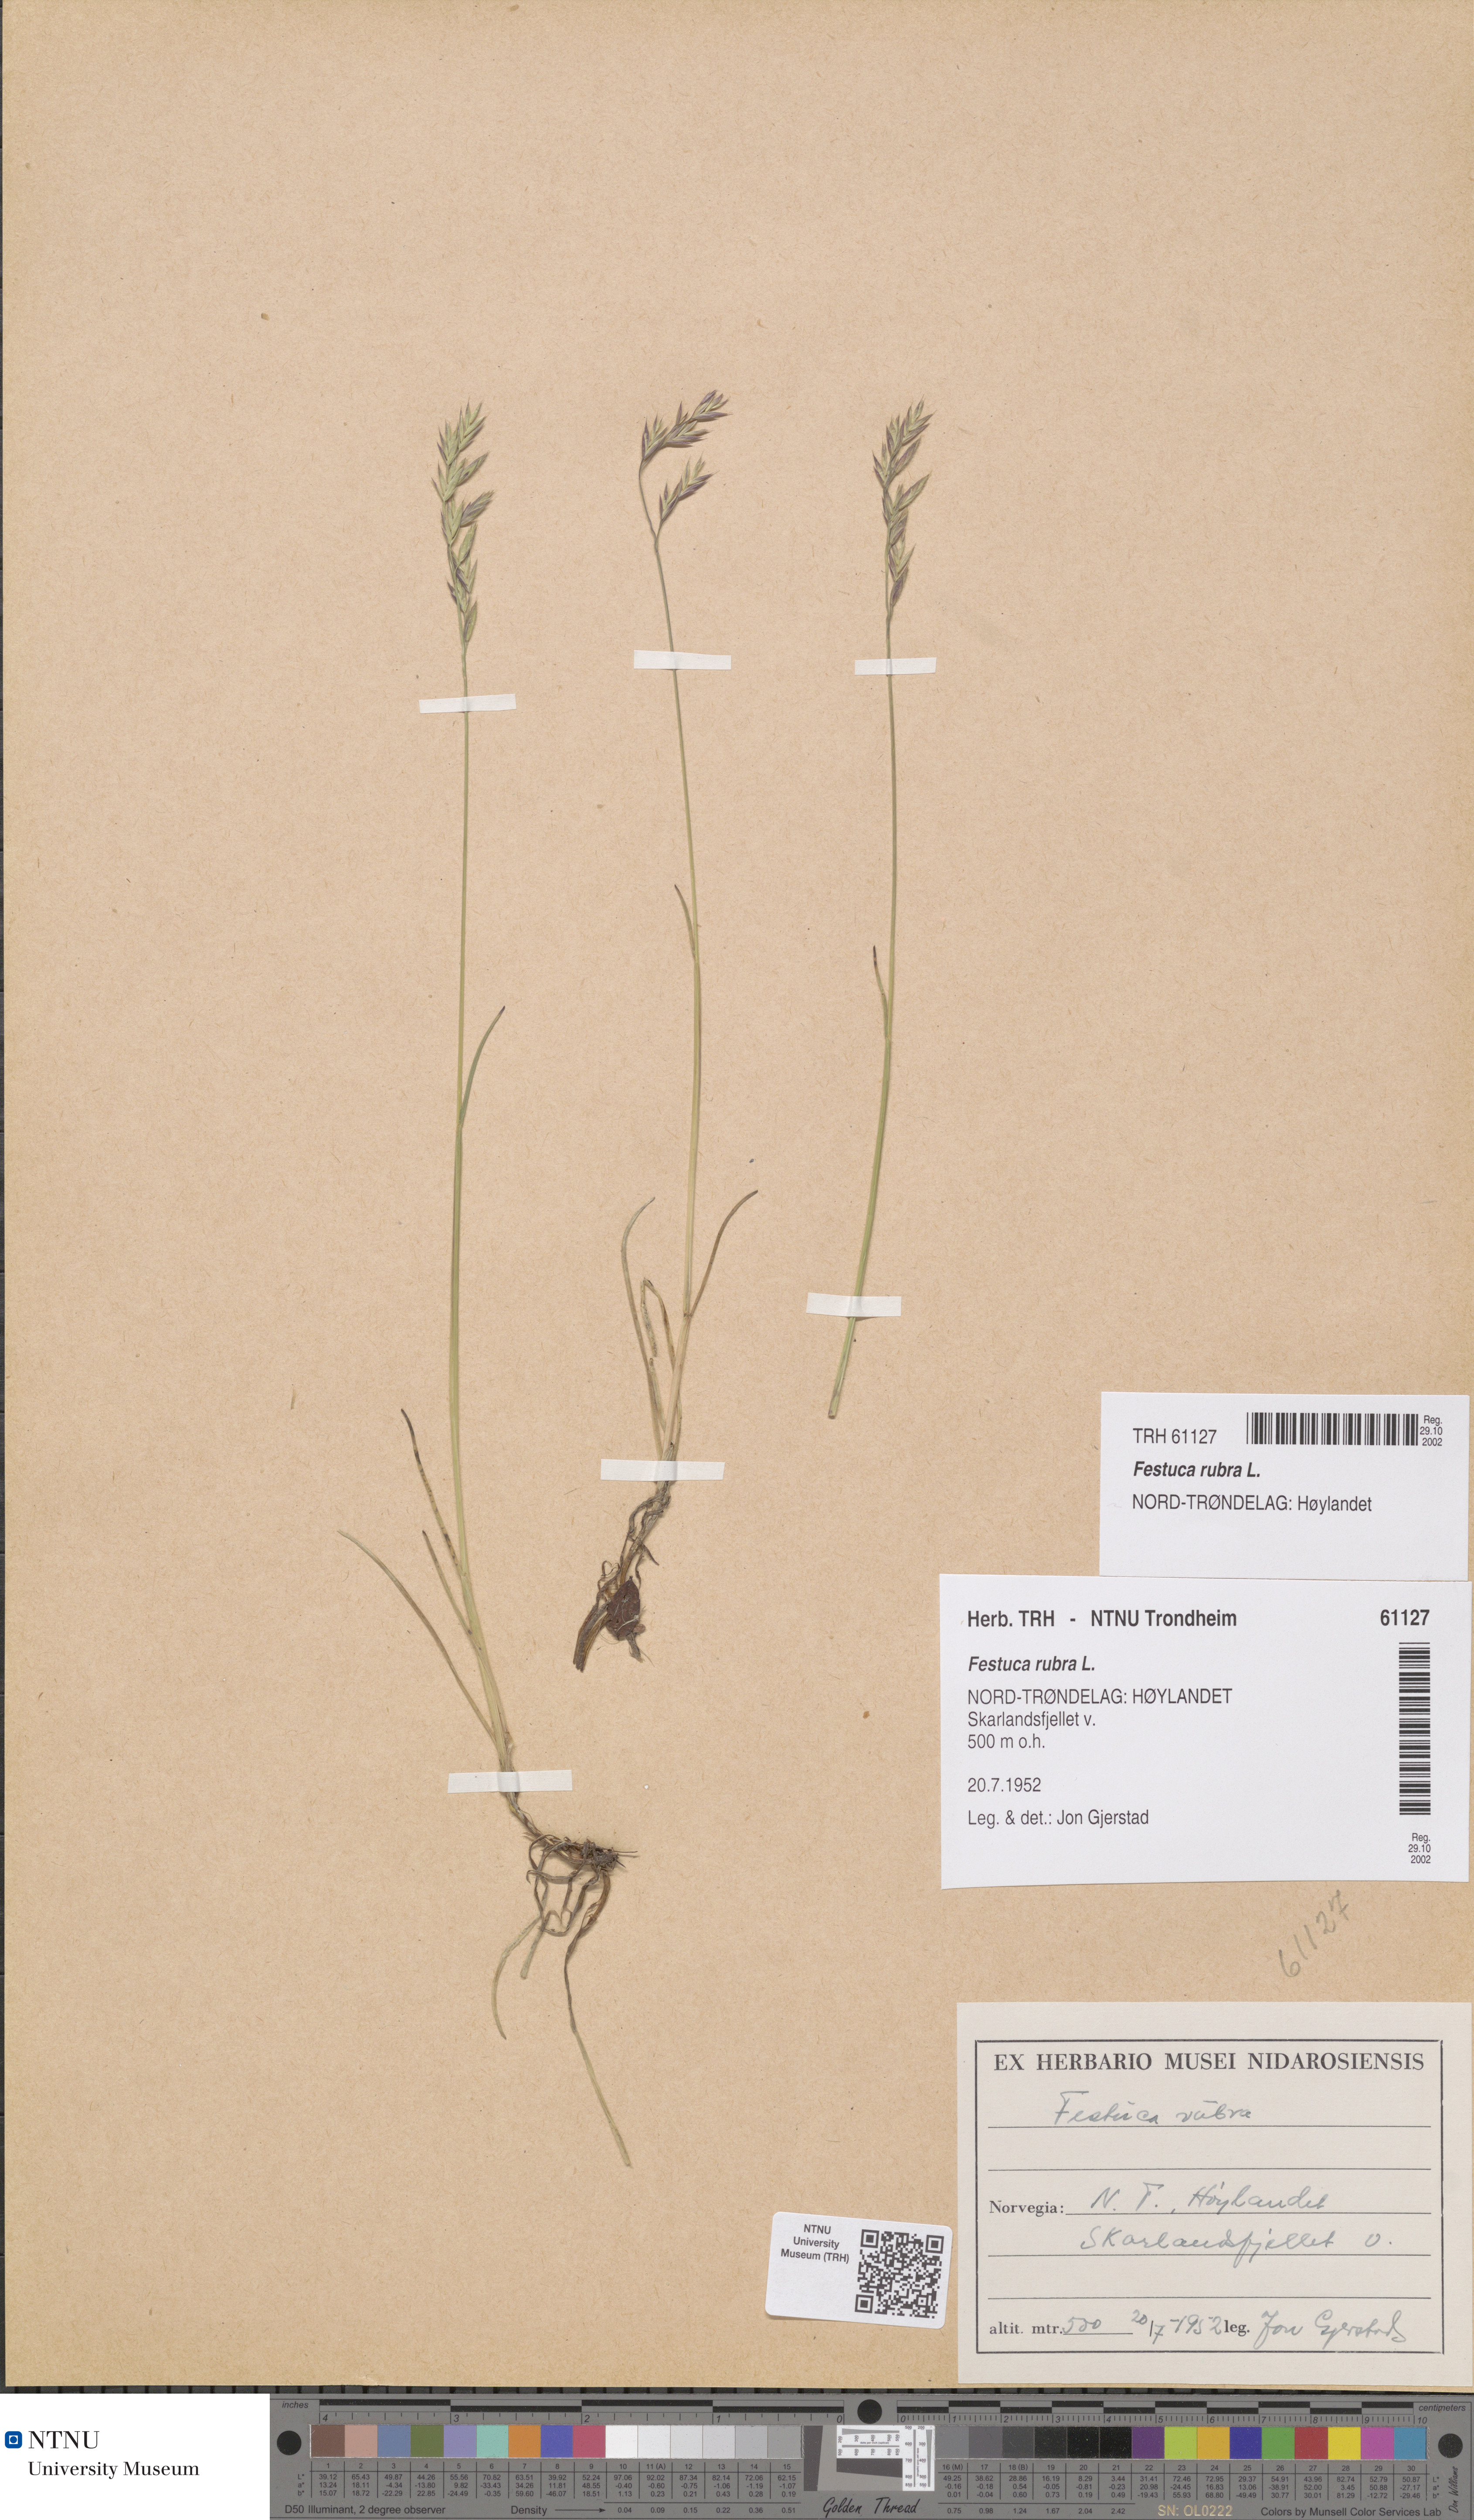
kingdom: Plantae
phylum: Tracheophyta
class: Liliopsida
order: Poales
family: Poaceae
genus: Festuca
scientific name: Festuca rubra
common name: Red fescue
